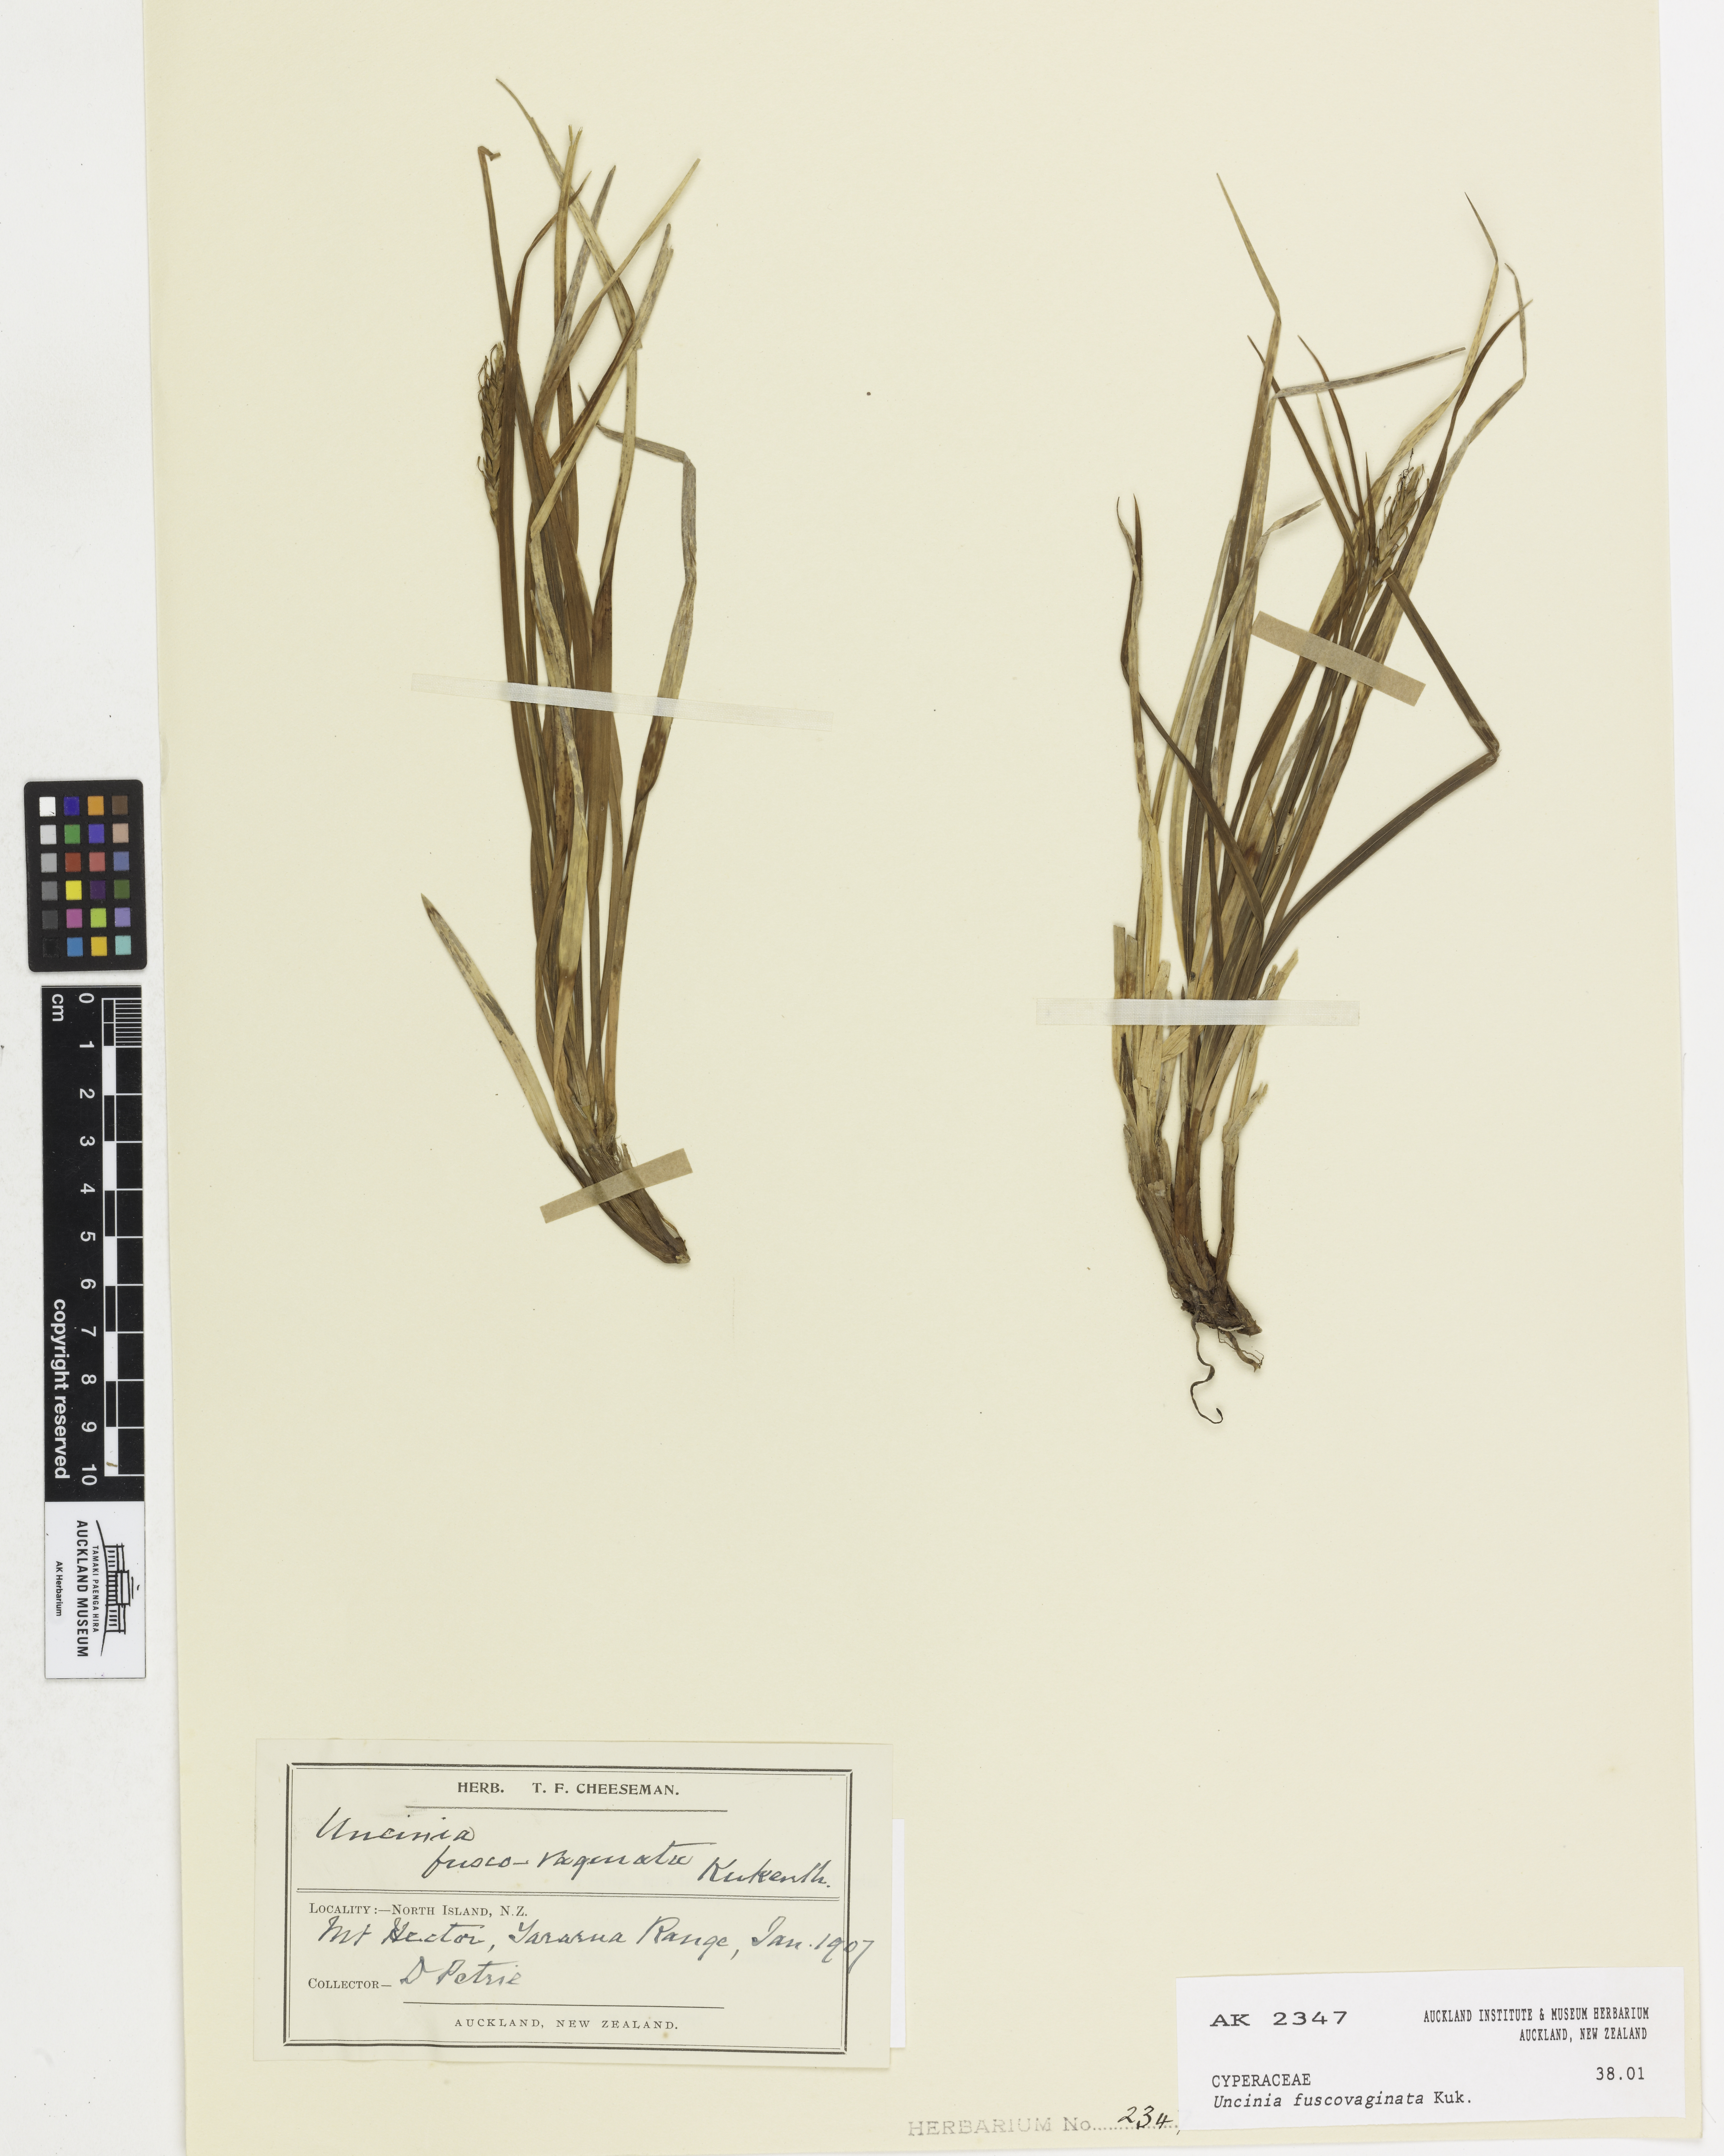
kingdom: Plantae
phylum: Tracheophyta
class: Liliopsida
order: Poales
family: Cyperaceae
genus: Carex
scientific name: Carex penalpina
